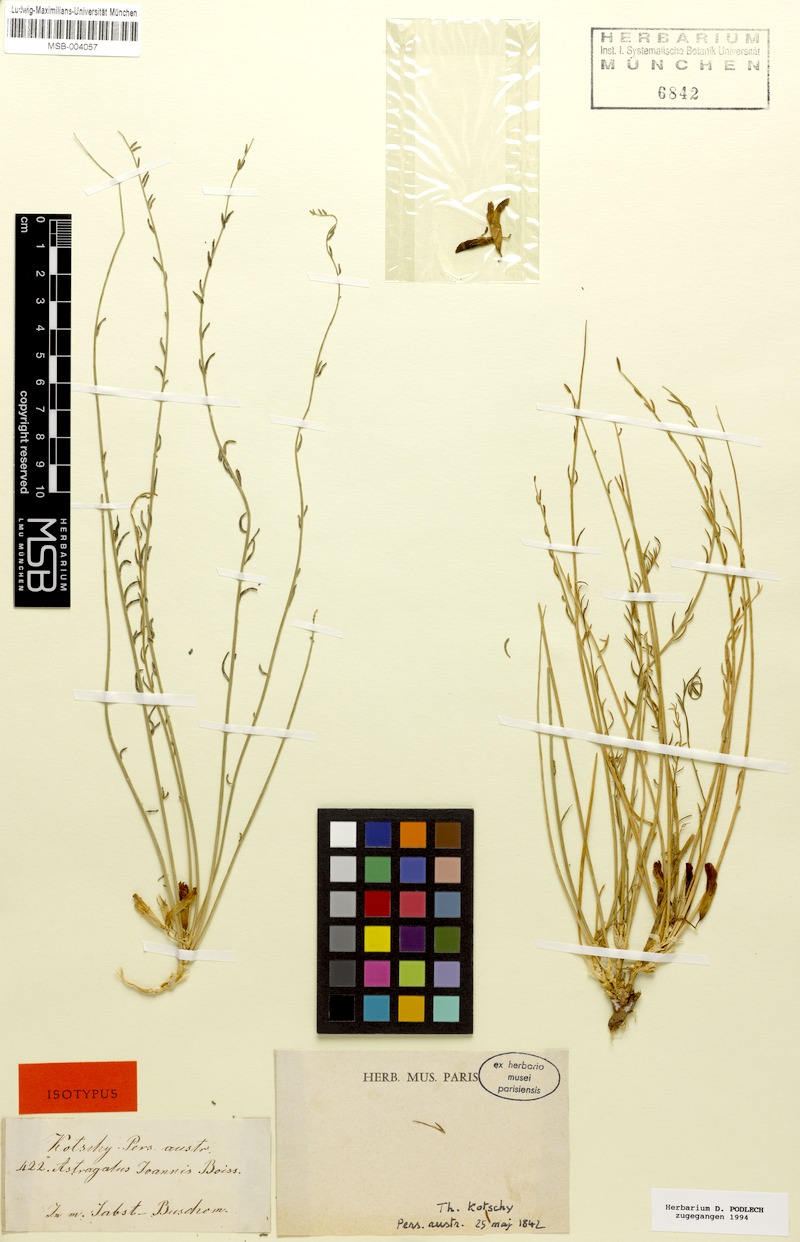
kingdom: Plantae
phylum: Tracheophyta
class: Magnoliopsida
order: Fabales
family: Fabaceae
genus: Astragalus
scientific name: Astragalus johannis
